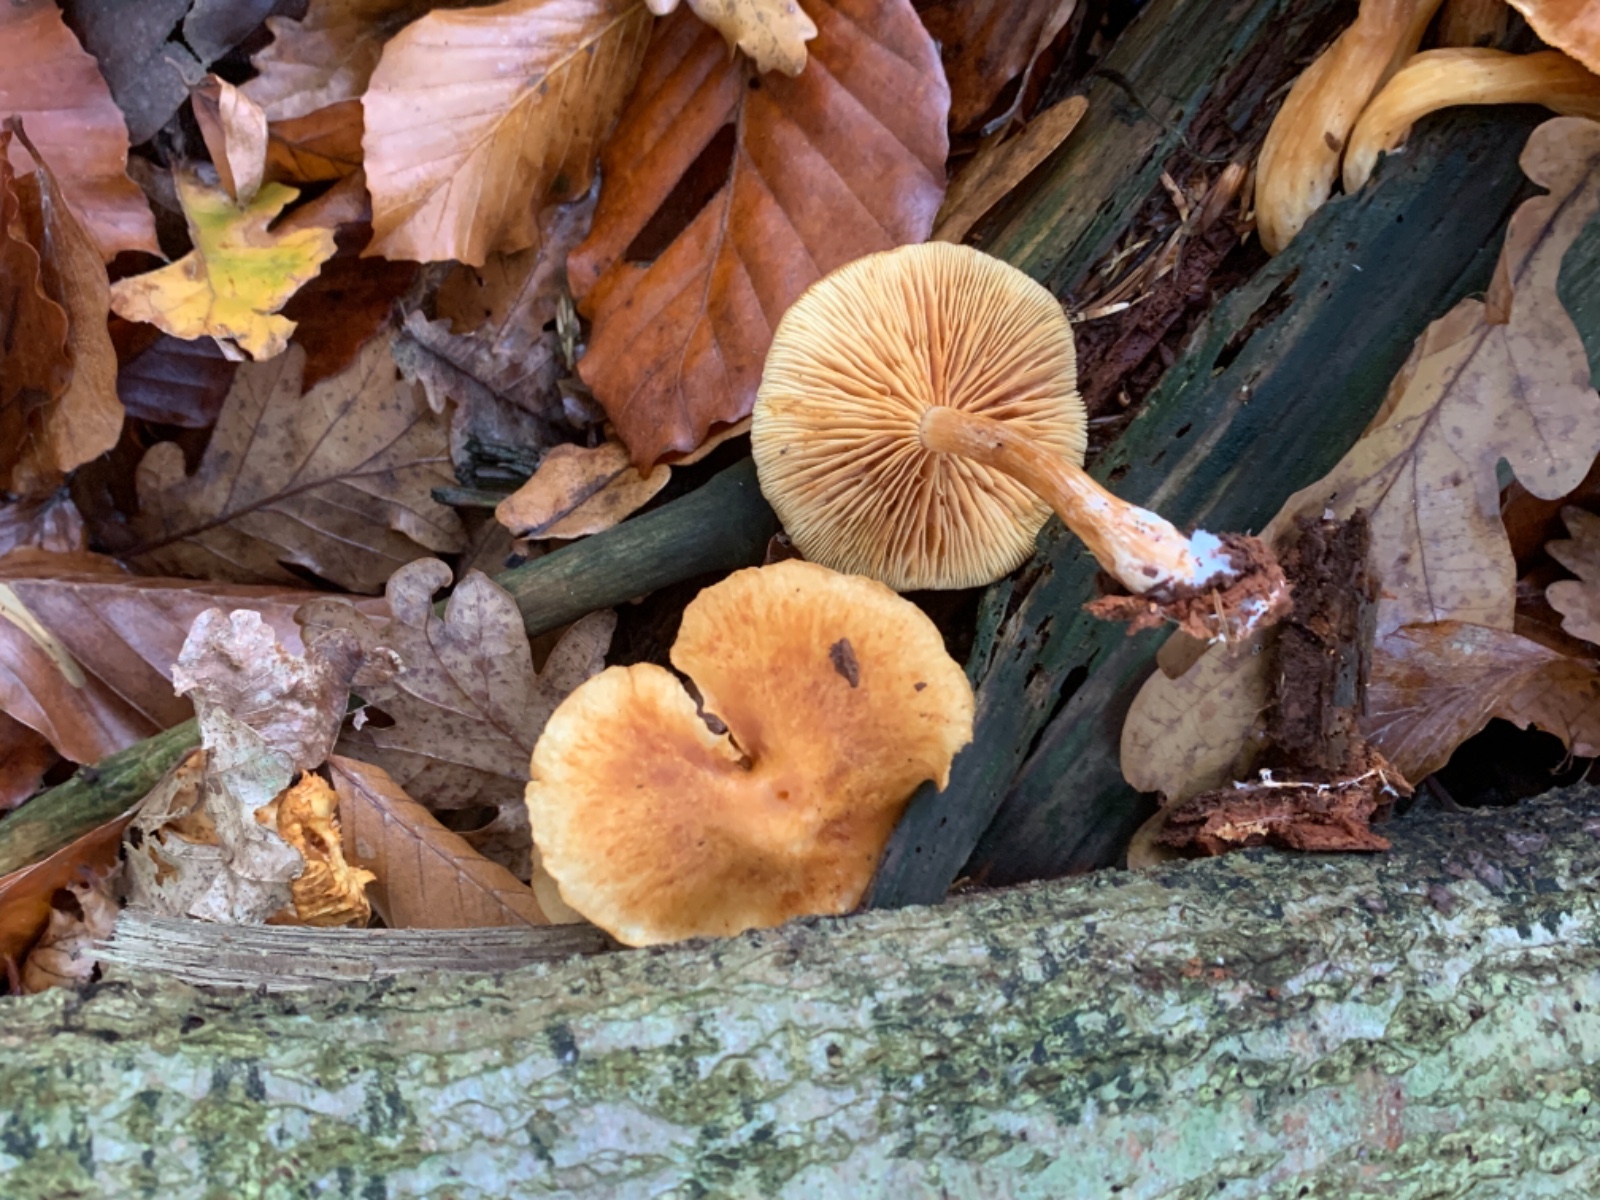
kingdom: Fungi
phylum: Basidiomycota
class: Agaricomycetes
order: Agaricales
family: Hymenogastraceae
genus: Gymnopilus
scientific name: Gymnopilus penetrans
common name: plettet flammehat
